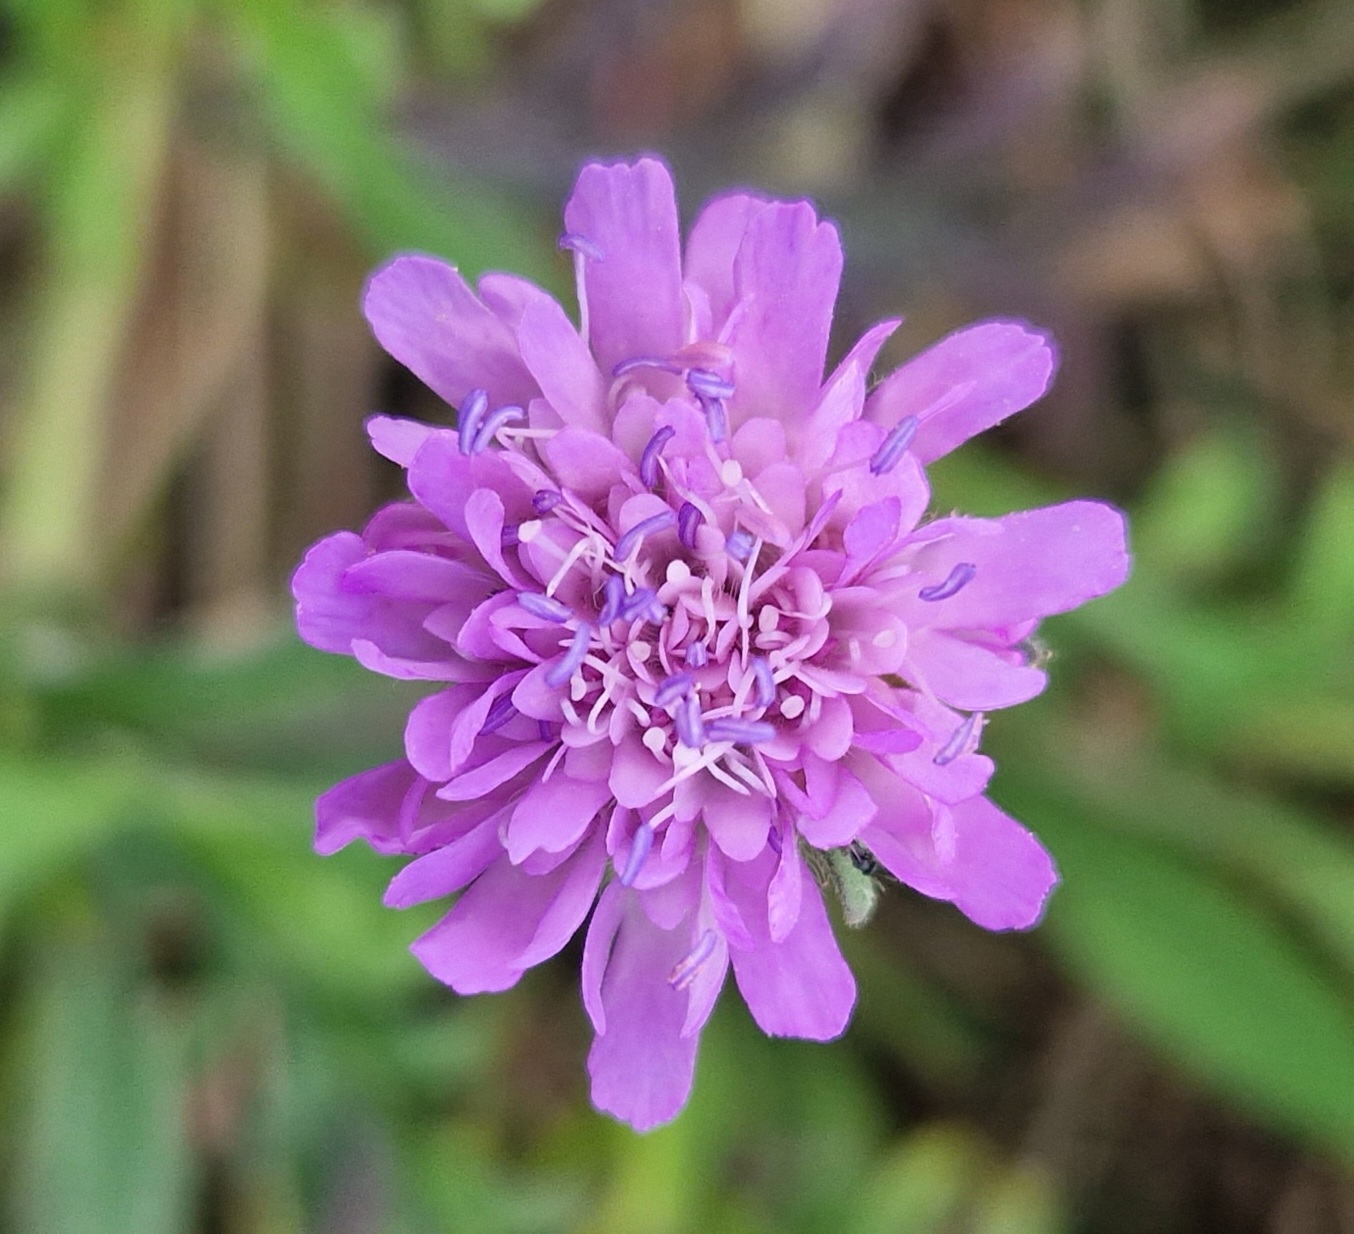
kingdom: Plantae
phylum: Tracheophyta
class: Magnoliopsida
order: Dipsacales
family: Caprifoliaceae
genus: Knautia
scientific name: Knautia arvensis
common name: Blåhat
